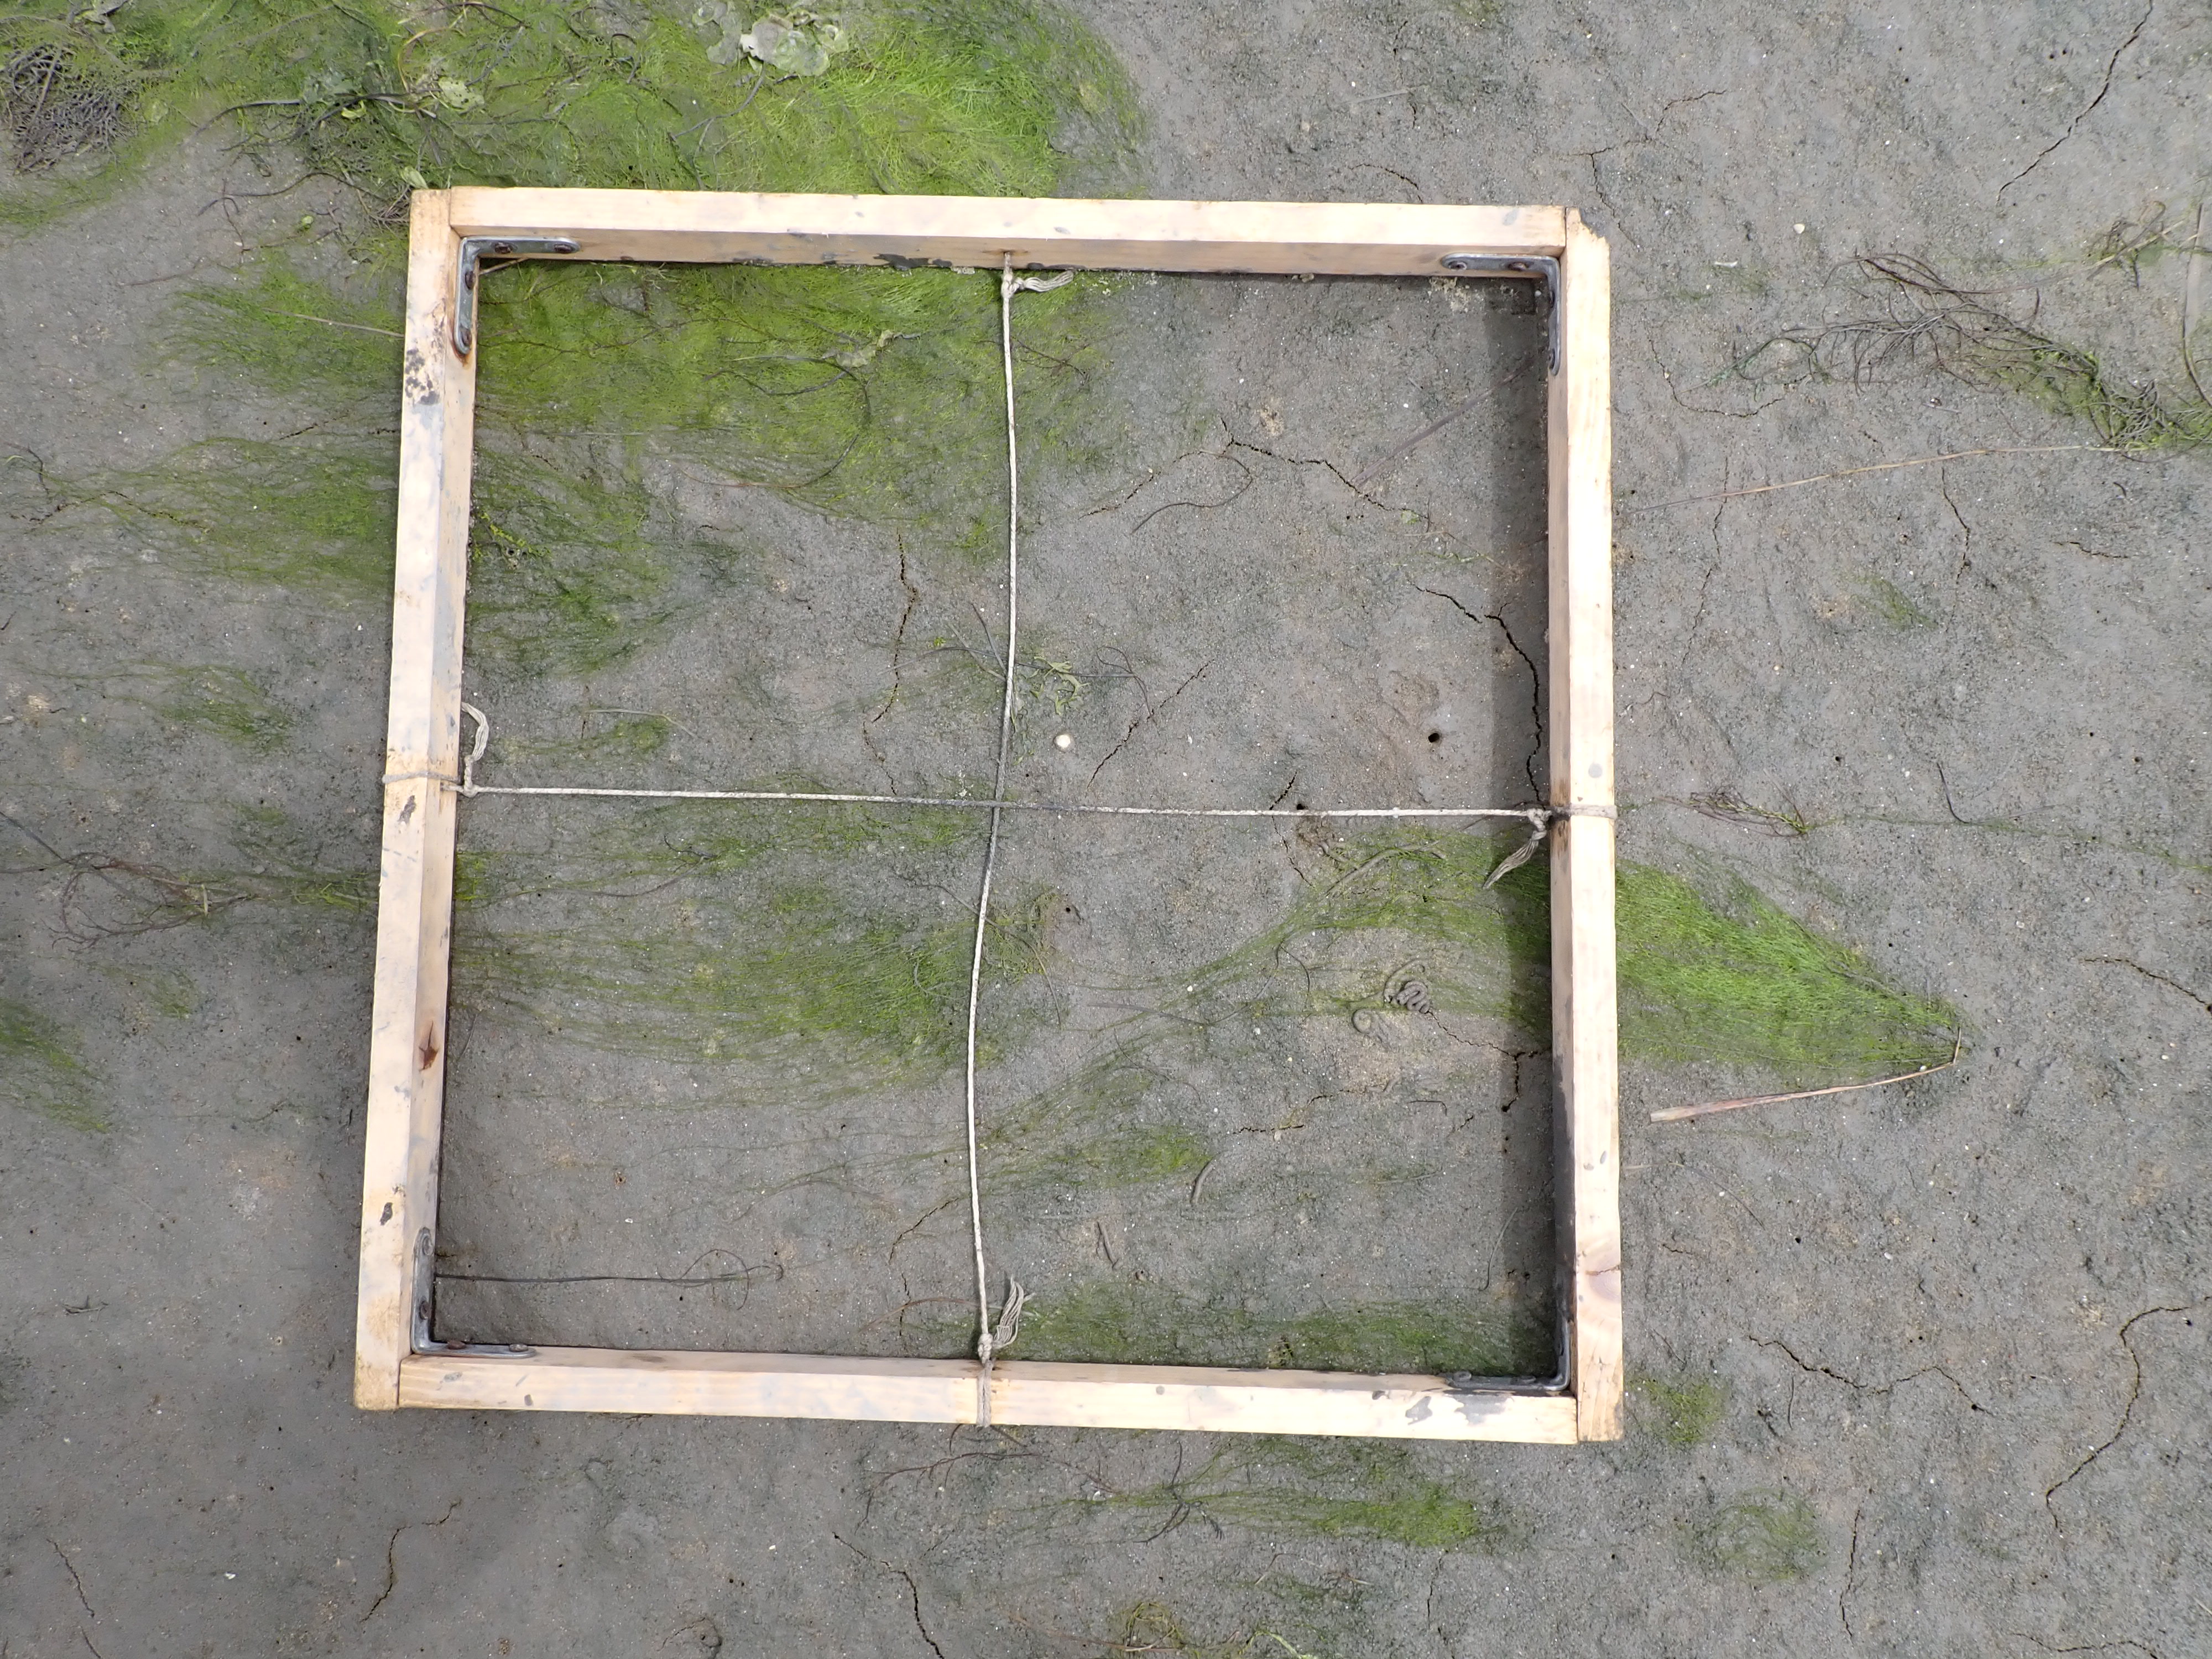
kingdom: Plantae
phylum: Chlorophyta
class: Ulvophyceae
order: Cladophorales
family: Cladophoraceae
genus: Chaetomorpha
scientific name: Chaetomorpha
